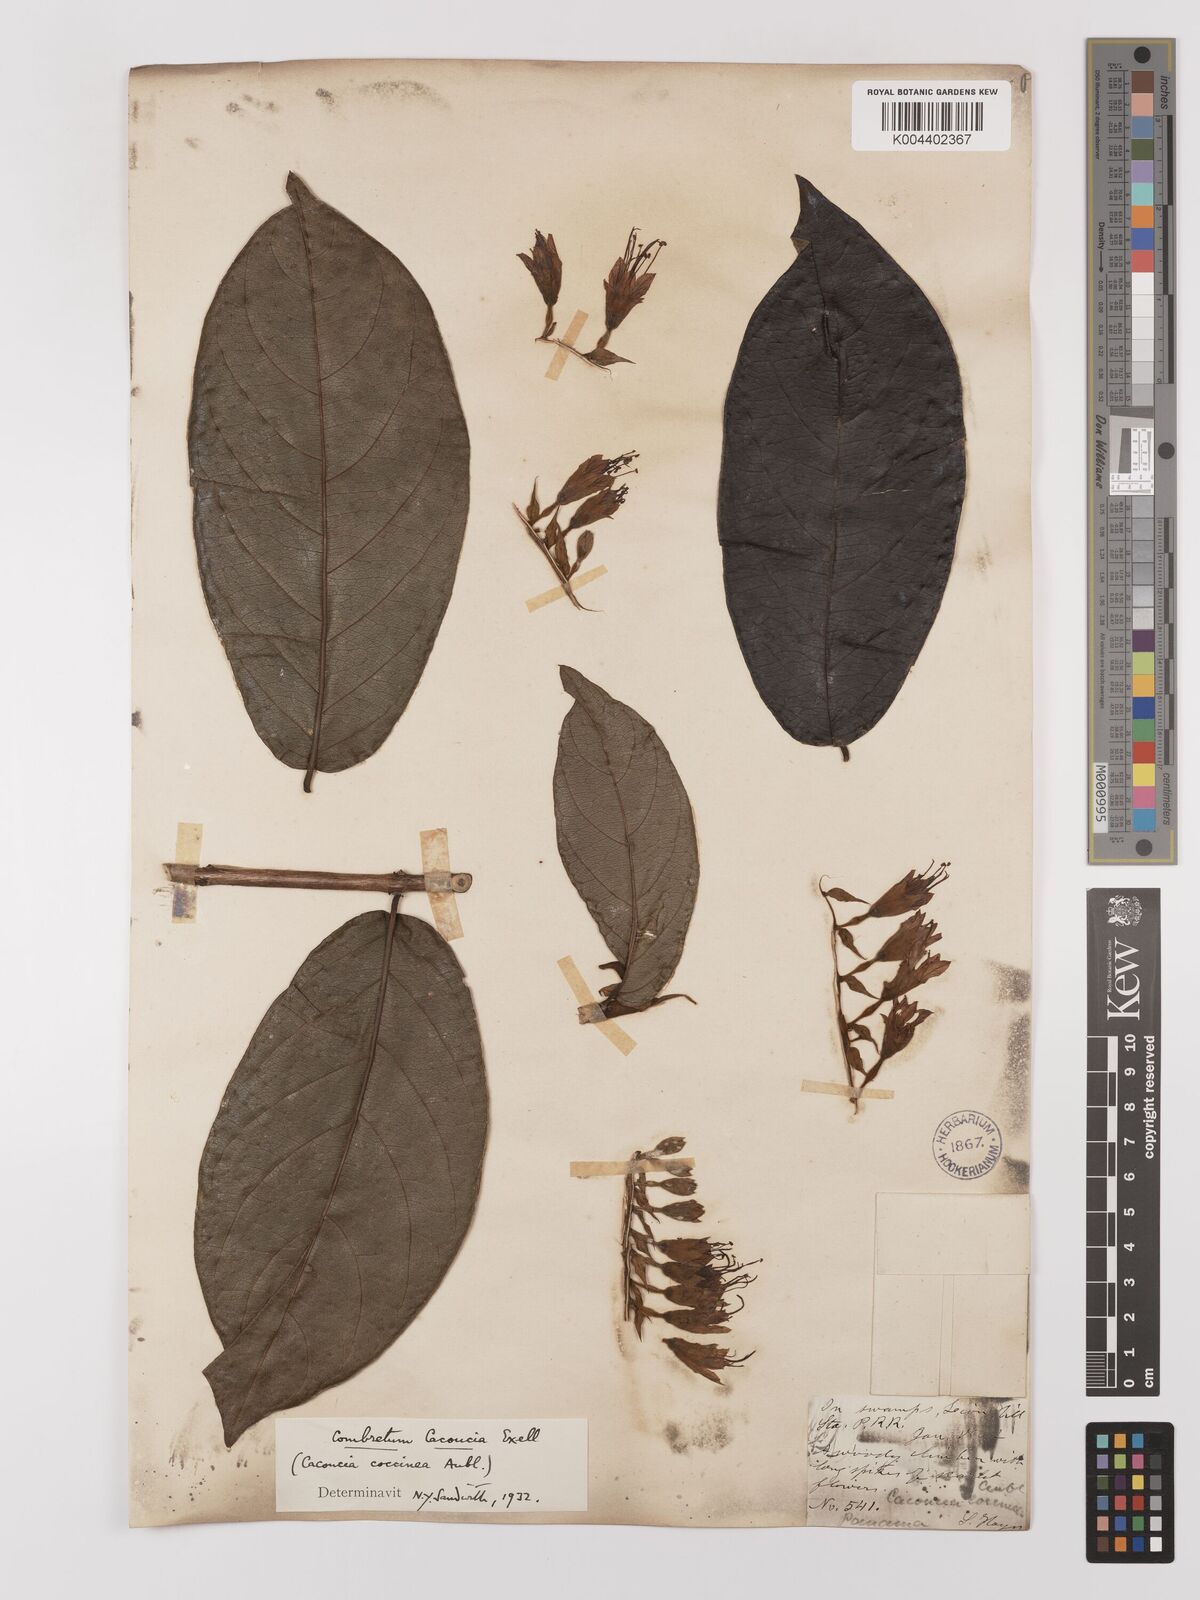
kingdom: Plantae
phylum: Tracheophyta
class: Magnoliopsida
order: Myrtales
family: Combretaceae
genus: Combretum
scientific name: Combretum cacoucia
